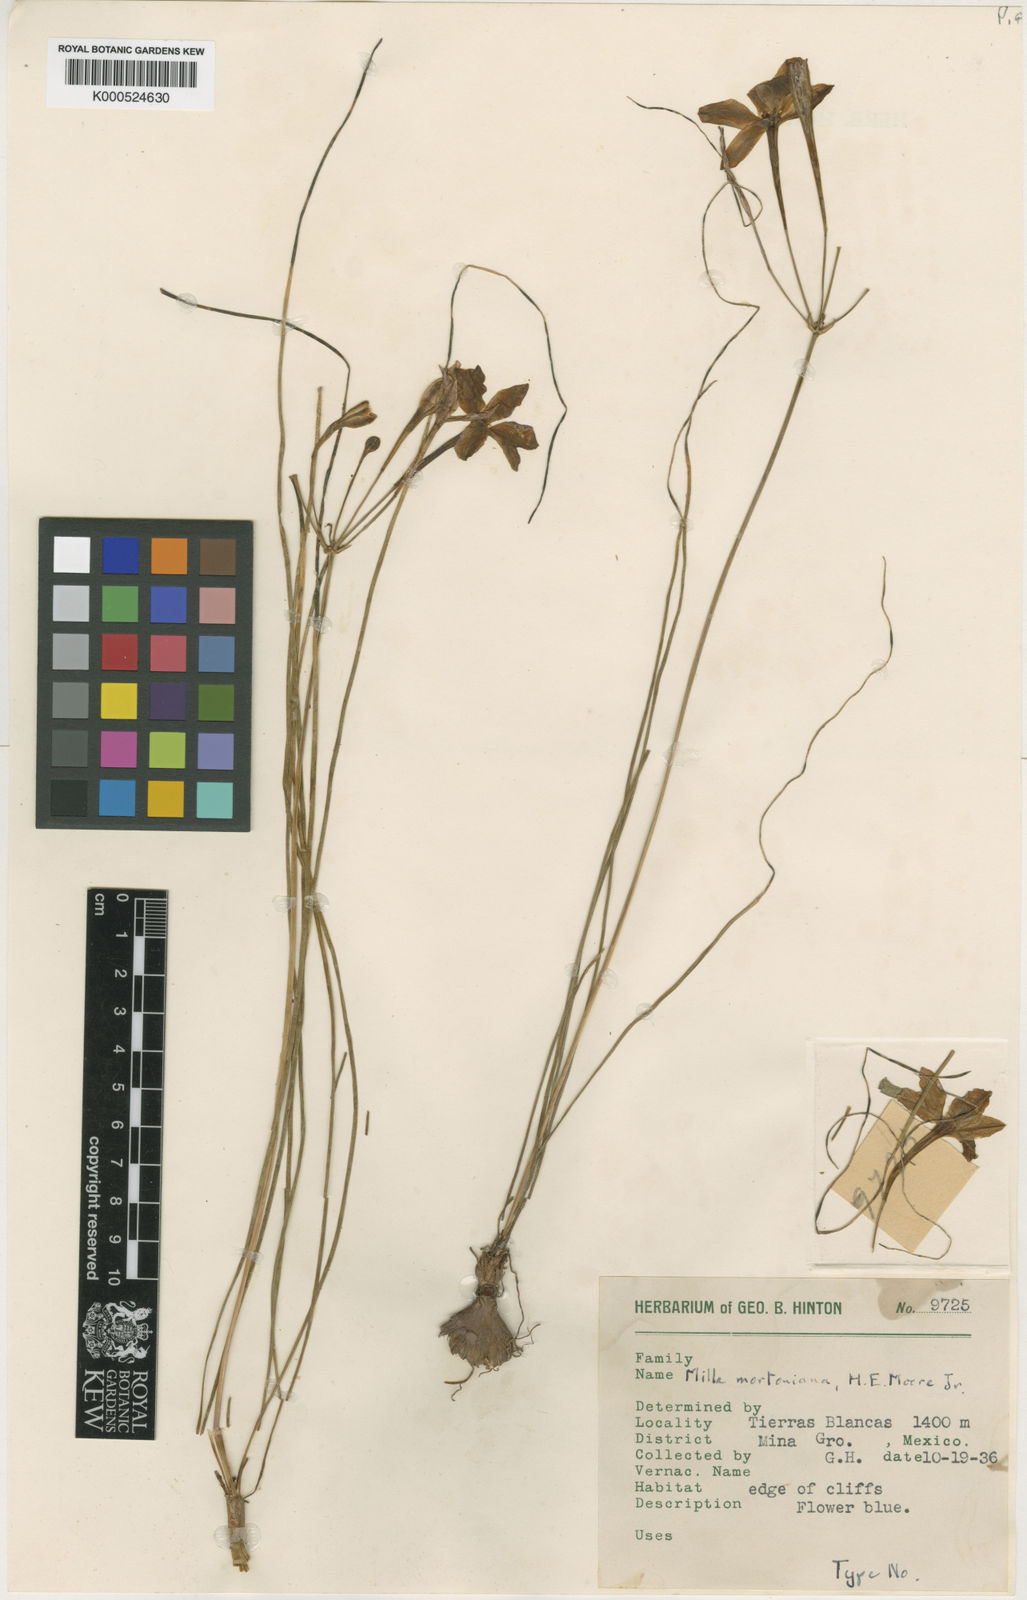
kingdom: Plantae
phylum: Tracheophyta
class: Liliopsida
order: Asparagales
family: Asparagaceae
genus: Xochiquetzallia
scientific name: Xochiquetzallia mortoniana
